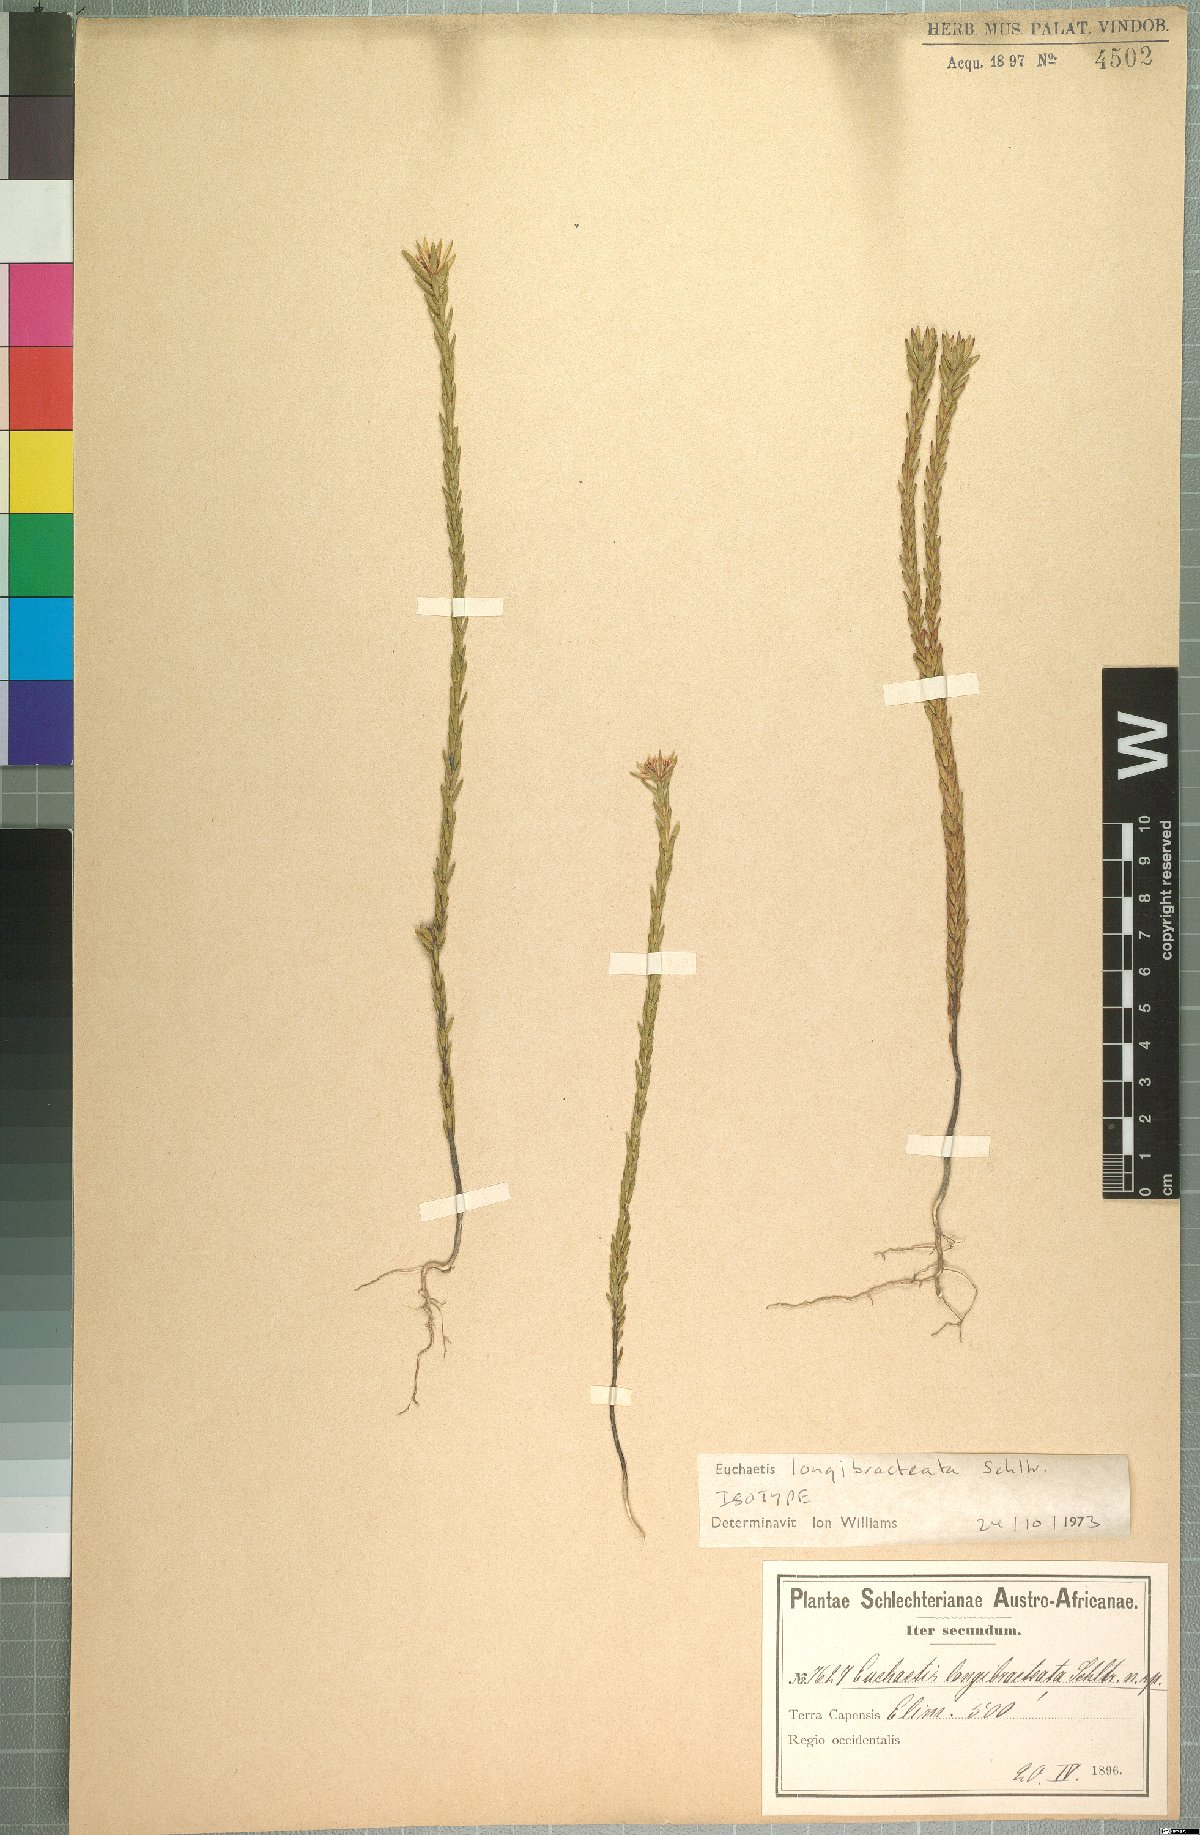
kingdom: Plantae
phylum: Tracheophyta
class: Magnoliopsida
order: Sapindales
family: Rutaceae
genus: Euchaetis
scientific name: Euchaetis longibracteata
